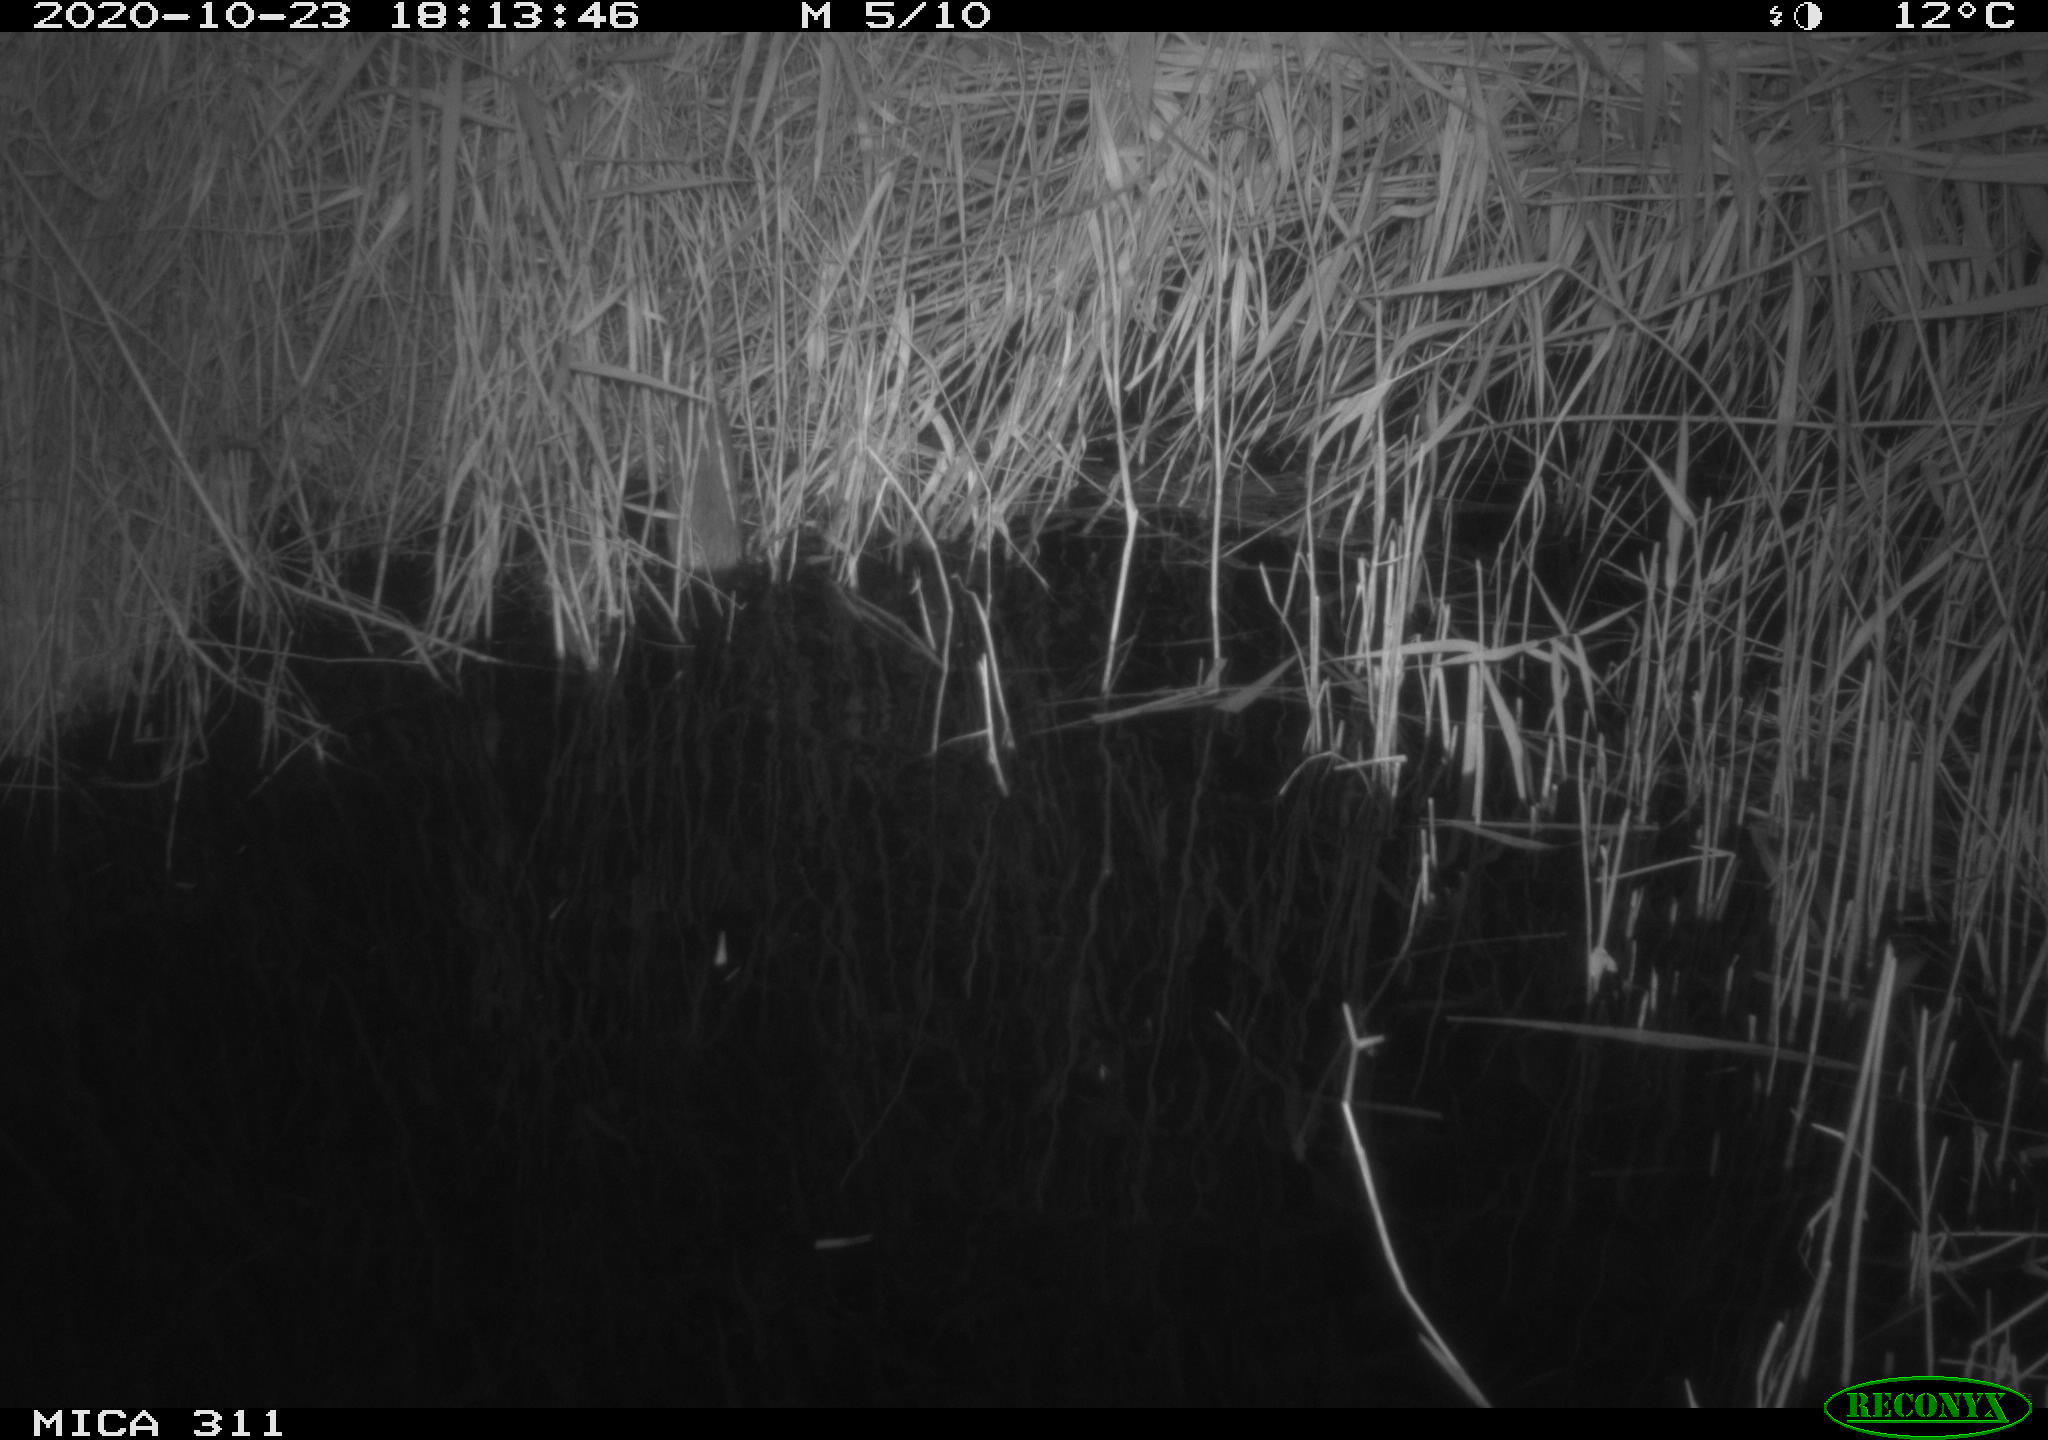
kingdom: Animalia
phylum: Chordata
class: Mammalia
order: Rodentia
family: Muridae
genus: Rattus
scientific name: Rattus norvegicus
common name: Brown rat
